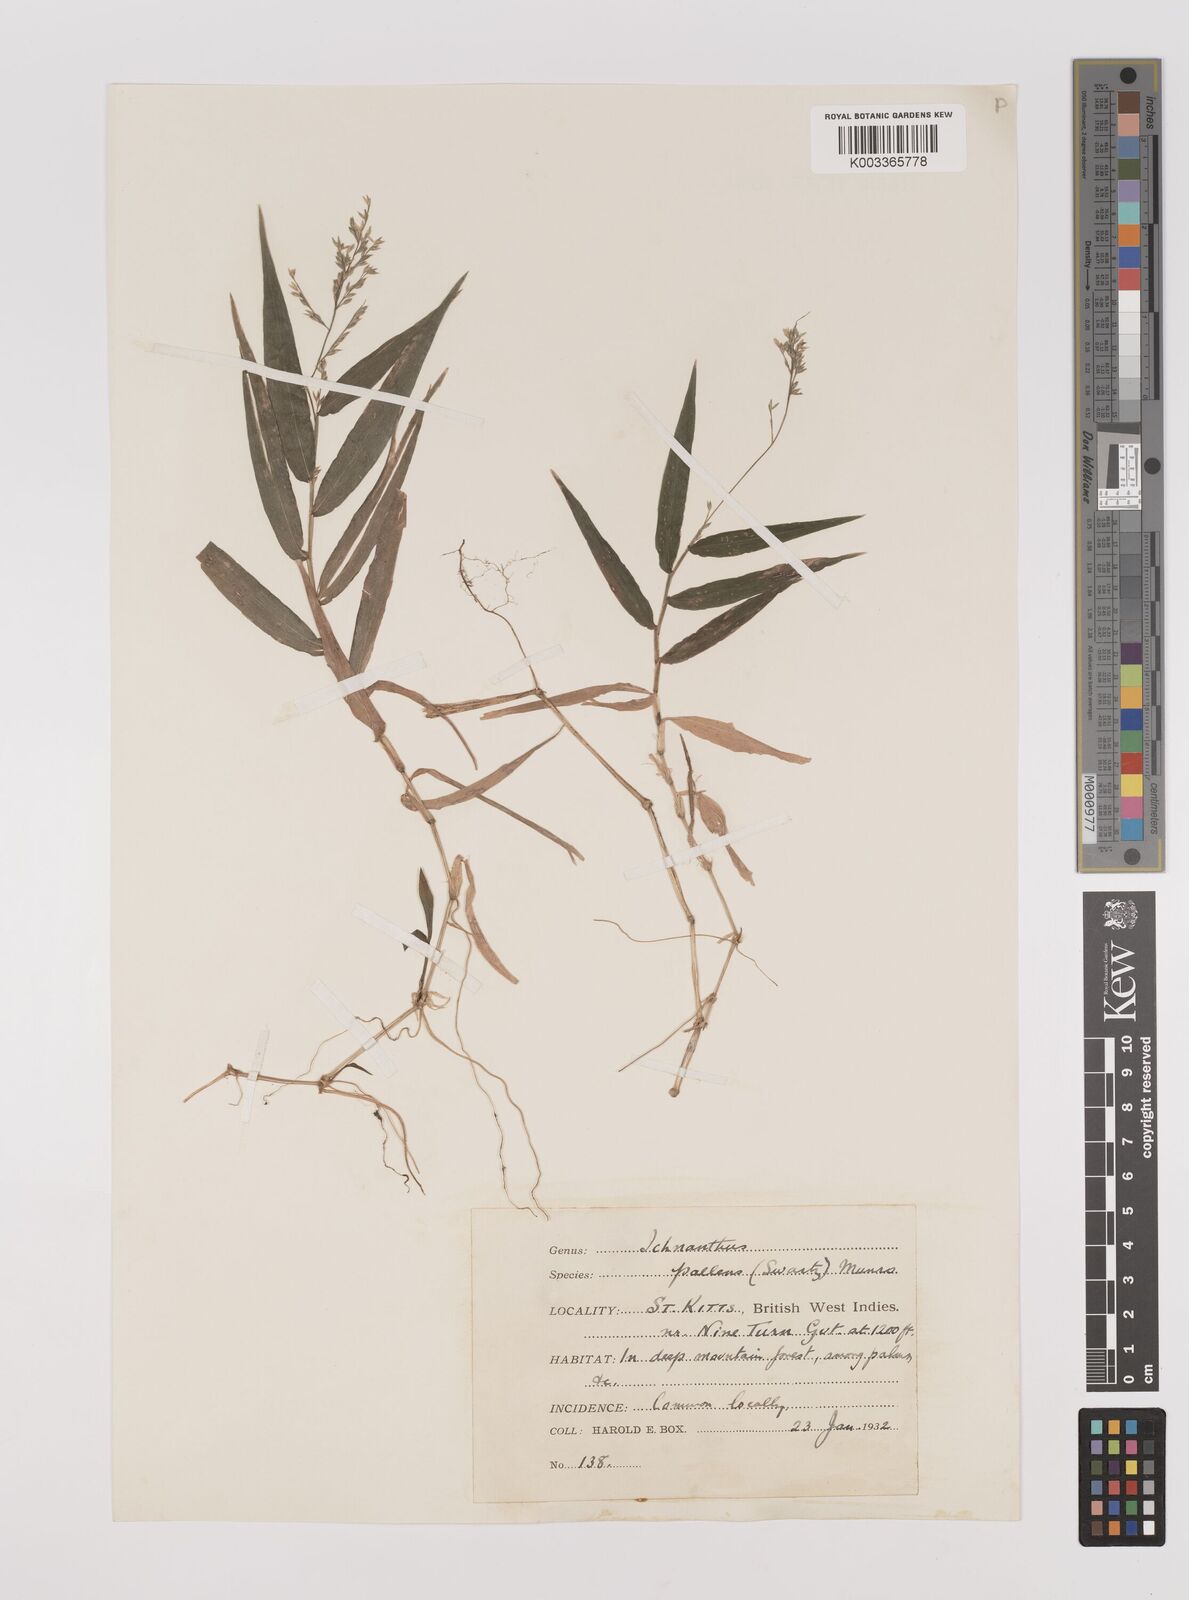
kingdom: Plantae
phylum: Tracheophyta
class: Liliopsida
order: Poales
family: Poaceae
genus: Ichnanthus
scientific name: Ichnanthus pallens
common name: Water grass
